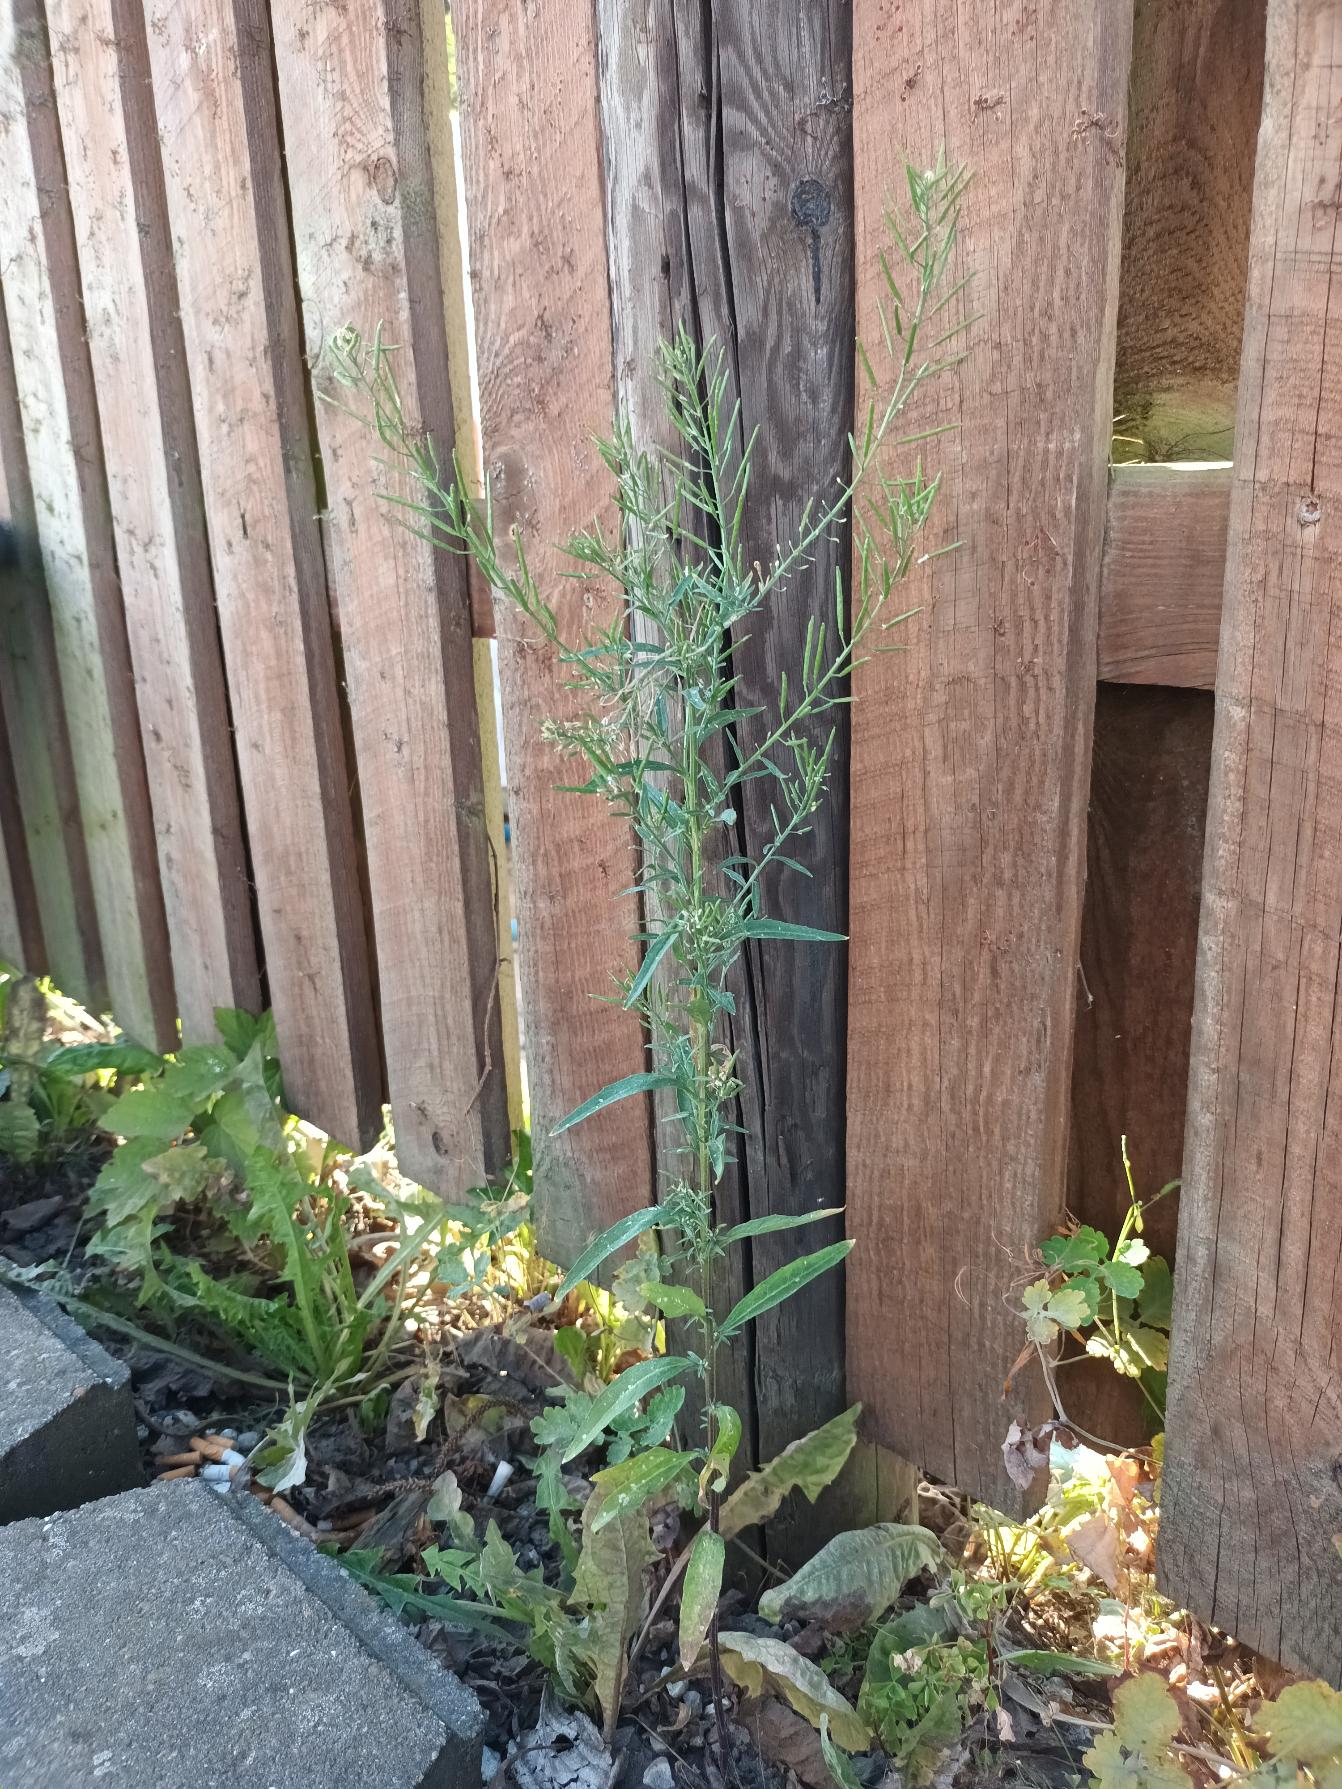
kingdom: Plantae
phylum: Tracheophyta
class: Magnoliopsida
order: Brassicales
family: Brassicaceae
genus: Erysimum
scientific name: Erysimum cheiranthoides
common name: Gyldenlak-hjørneklap
